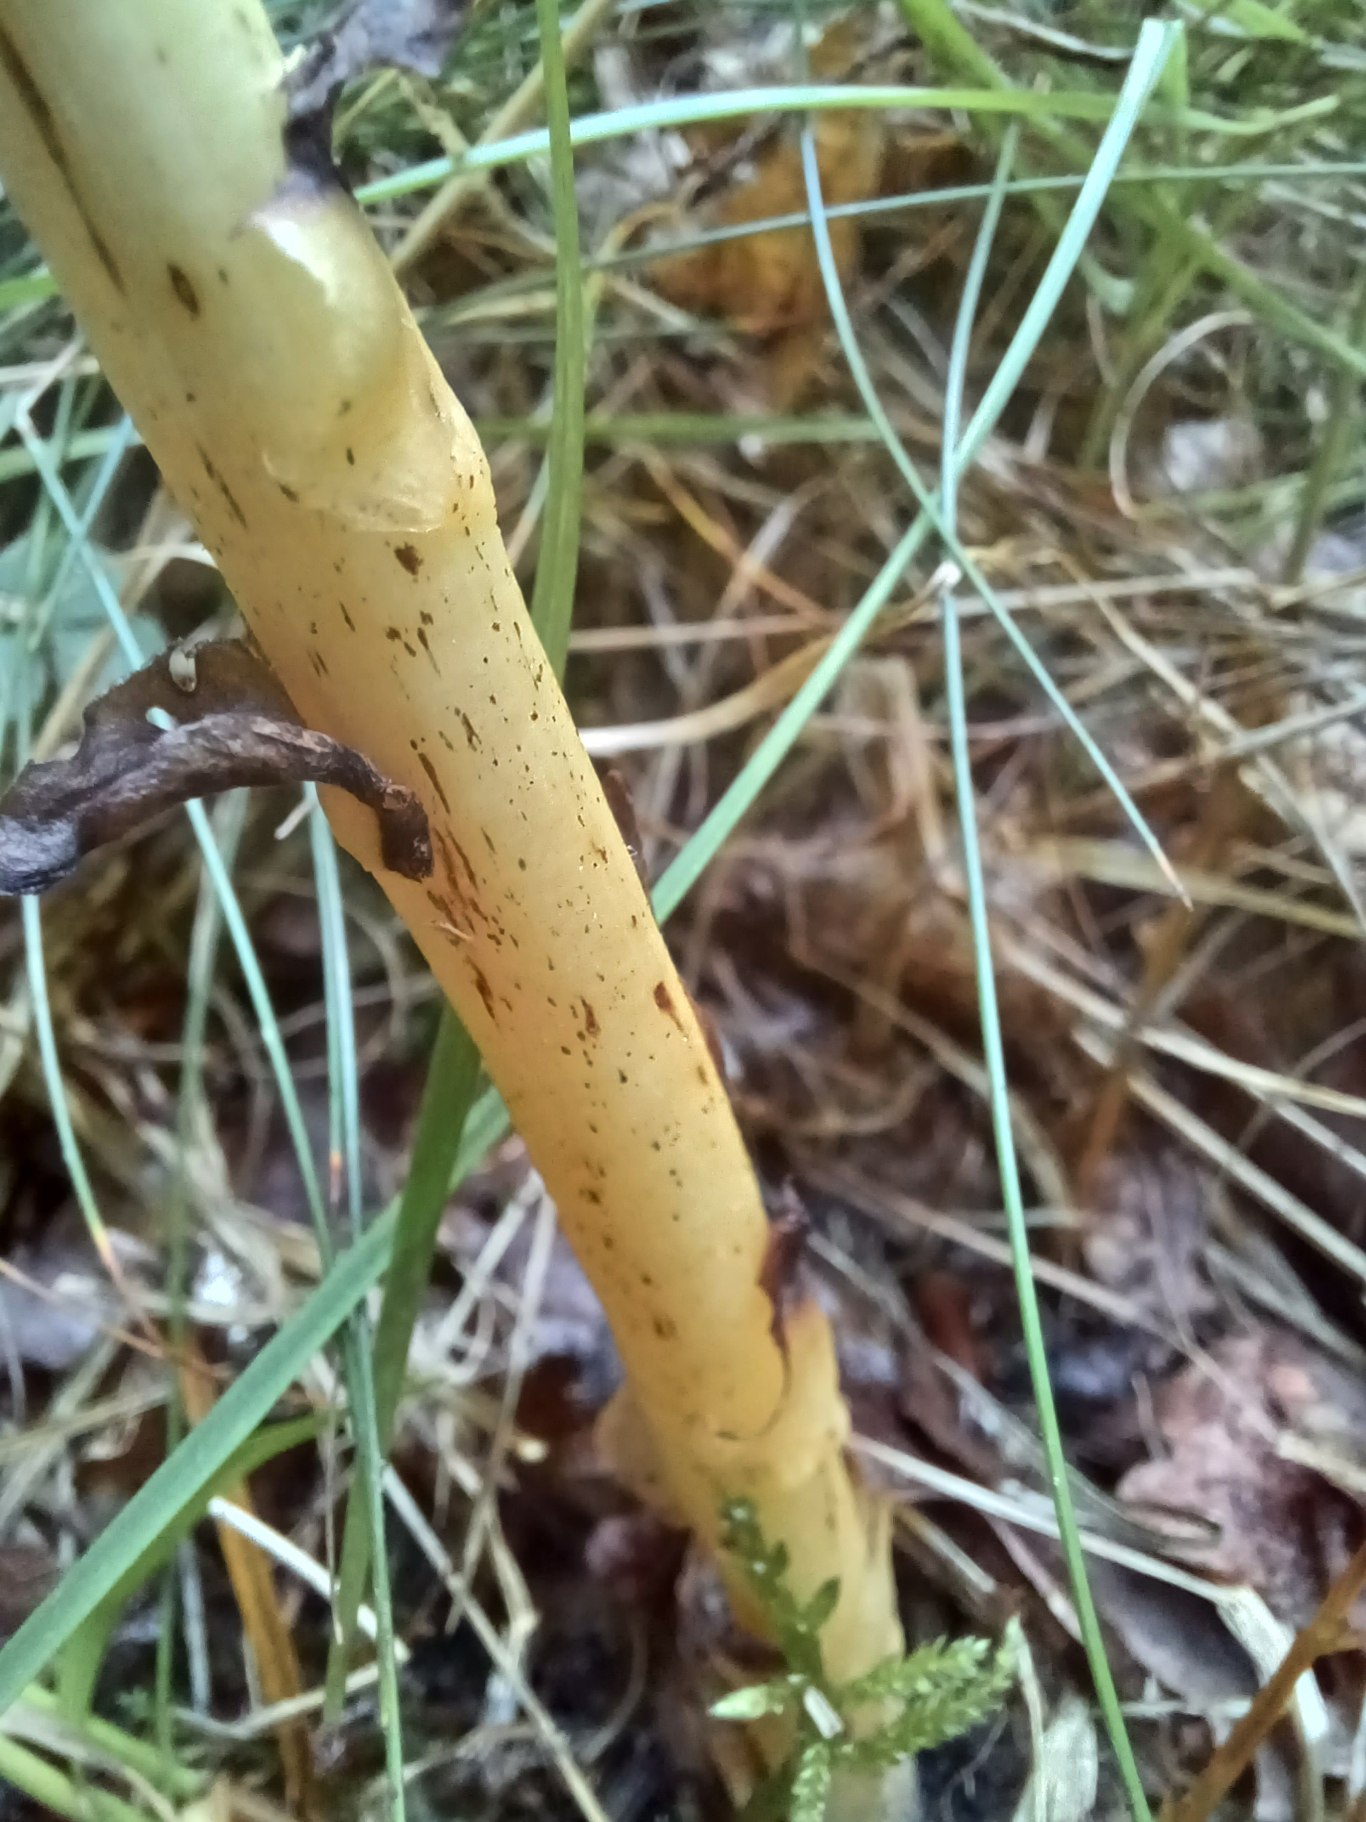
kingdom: Plantae
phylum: Tracheophyta
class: Magnoliopsida
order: Ericales
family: Ericaceae
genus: Hypopitys
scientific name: Hypopitys monotropa
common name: Snylterod
